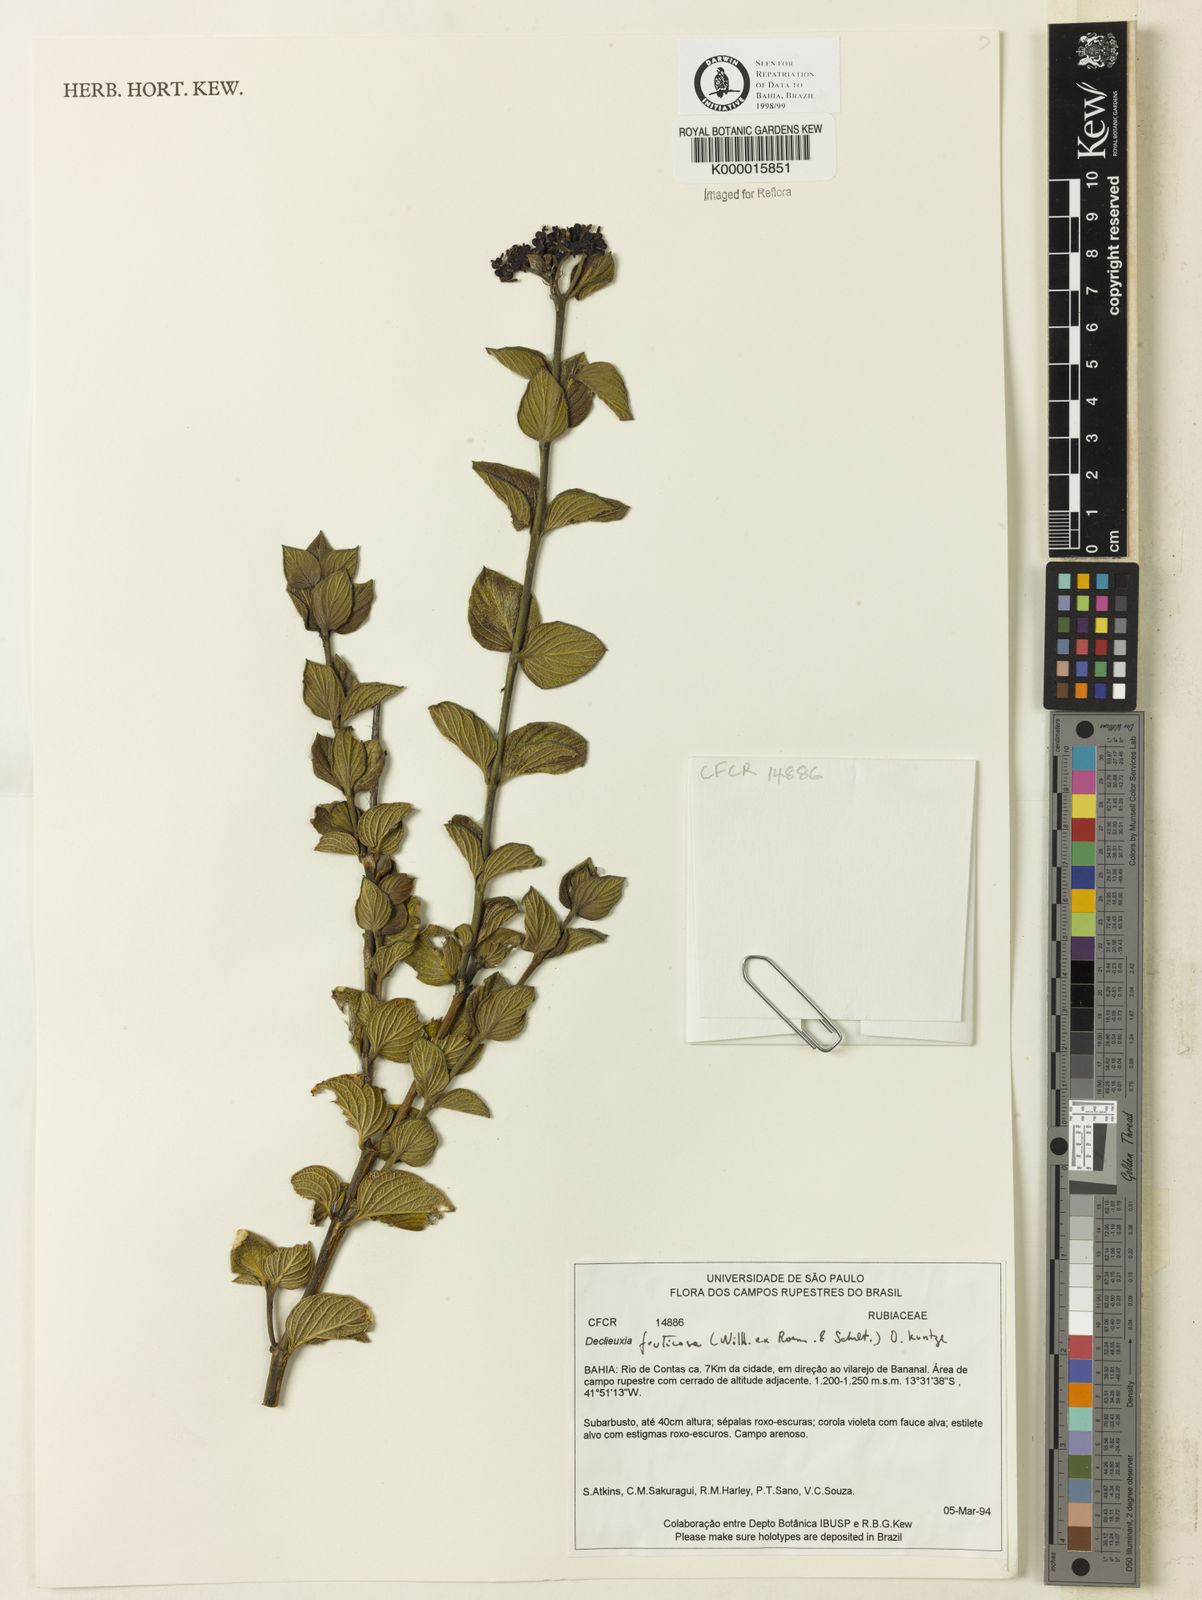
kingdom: Plantae
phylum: Tracheophyta
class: Magnoliopsida
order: Gentianales
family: Rubiaceae
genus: Declieuxia
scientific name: Declieuxia fruticosa
